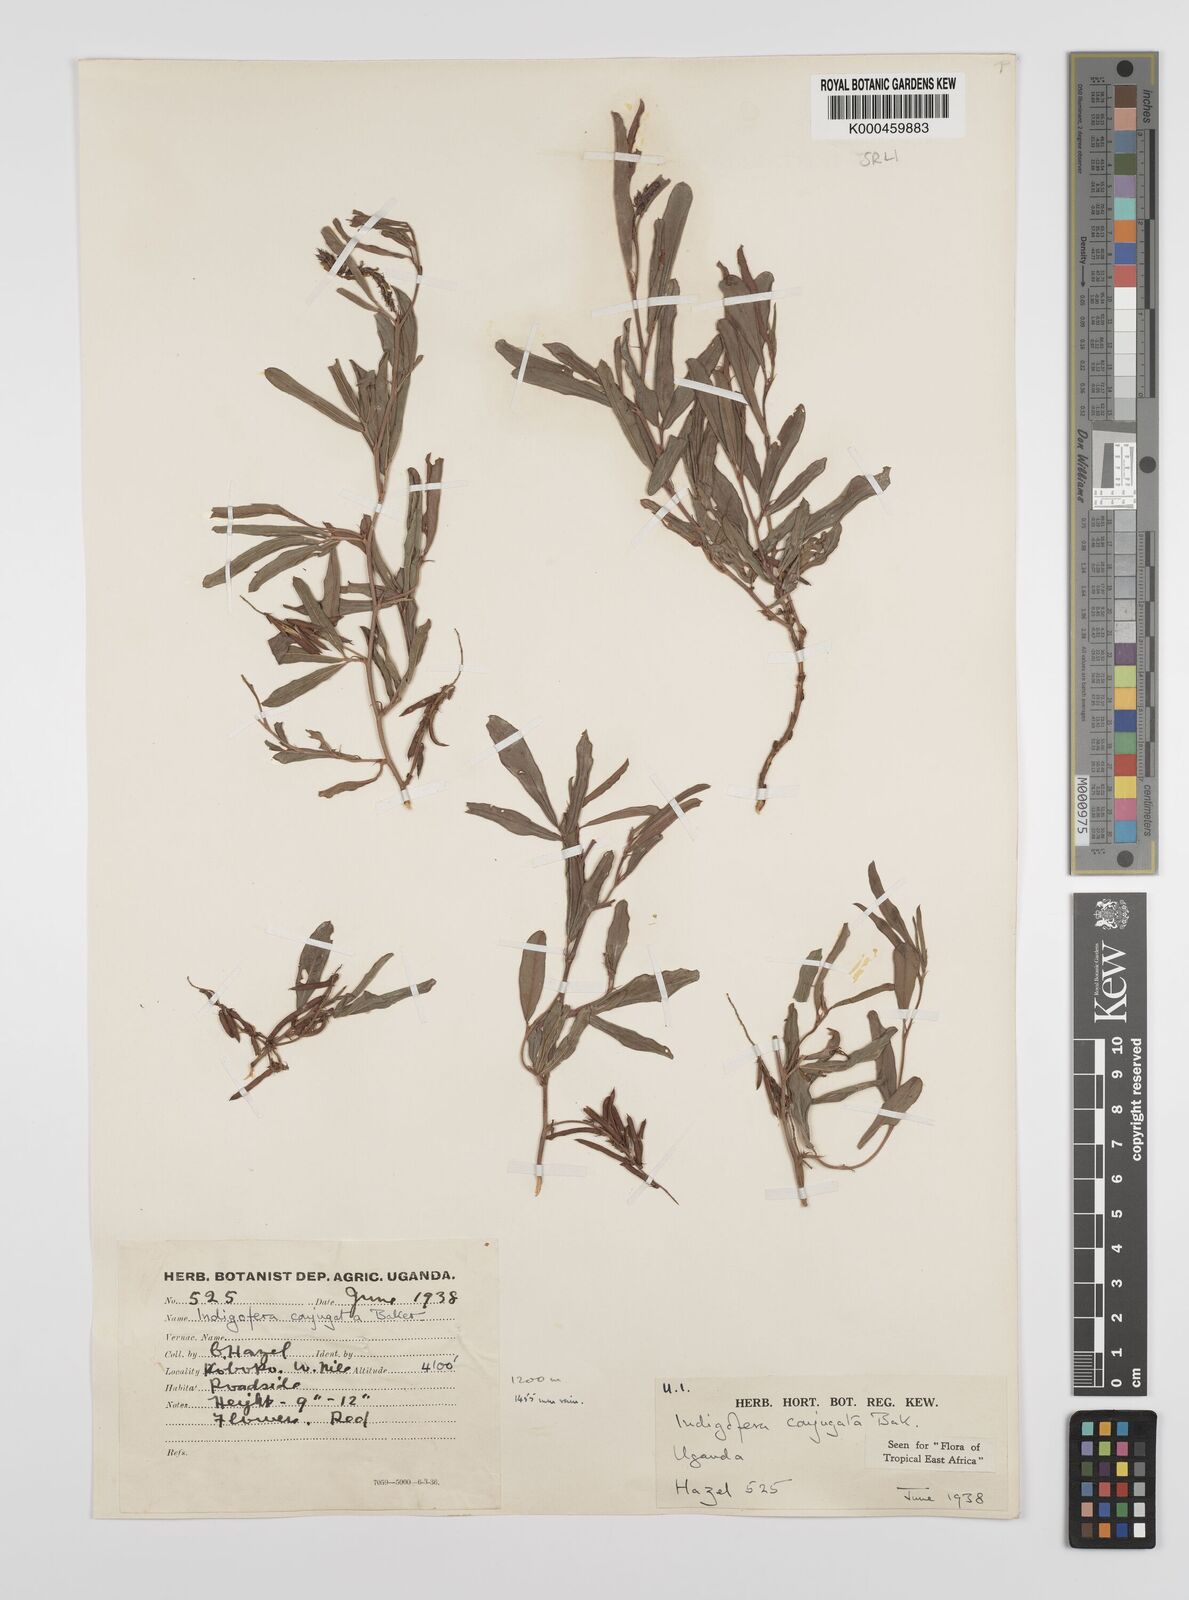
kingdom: Plantae
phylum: Tracheophyta
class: Magnoliopsida
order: Fabales
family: Fabaceae
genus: Indigofera
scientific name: Indigofera conjugata
